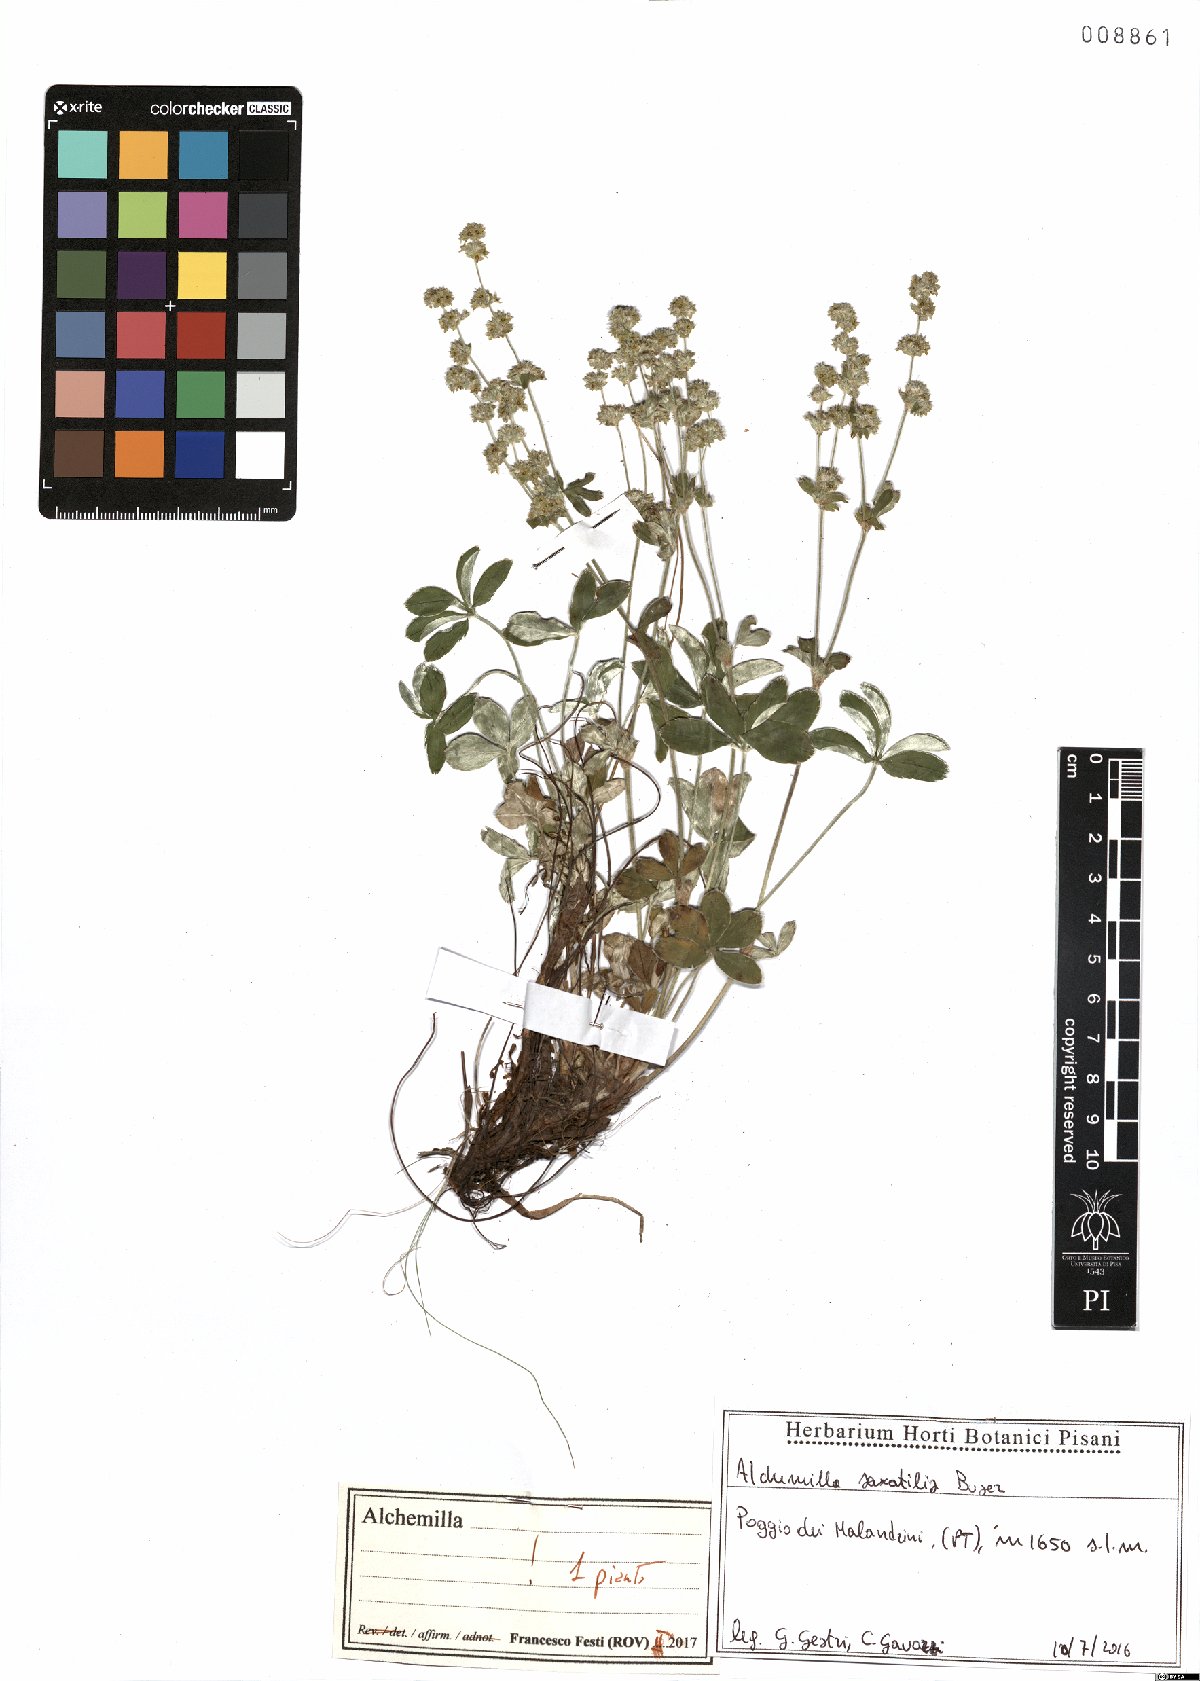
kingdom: Plantae
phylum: Tracheophyta
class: Magnoliopsida
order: Rosales
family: Rosaceae
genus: Alchemilla
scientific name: Alchemilla saxatilis
